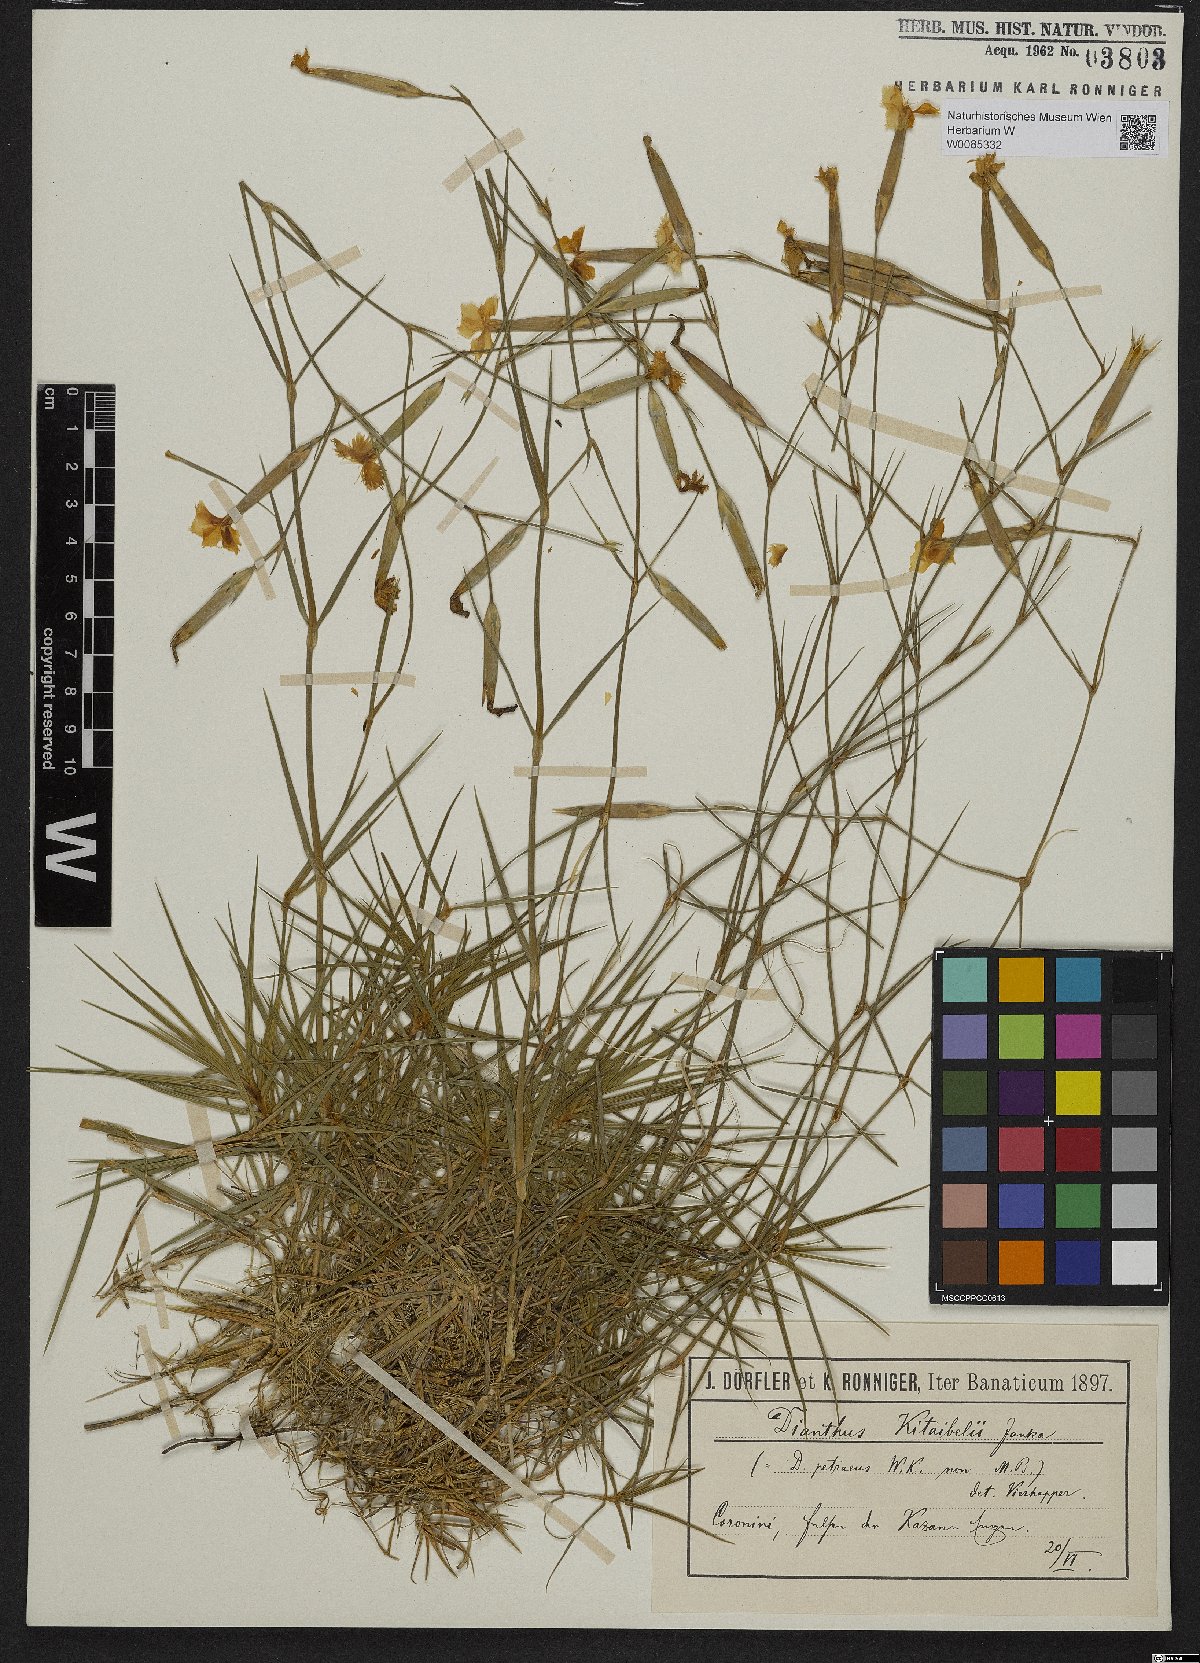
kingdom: Plantae
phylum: Tracheophyta
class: Magnoliopsida
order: Caryophyllales
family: Caryophyllaceae
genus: Dianthus
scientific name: Dianthus petraeus
